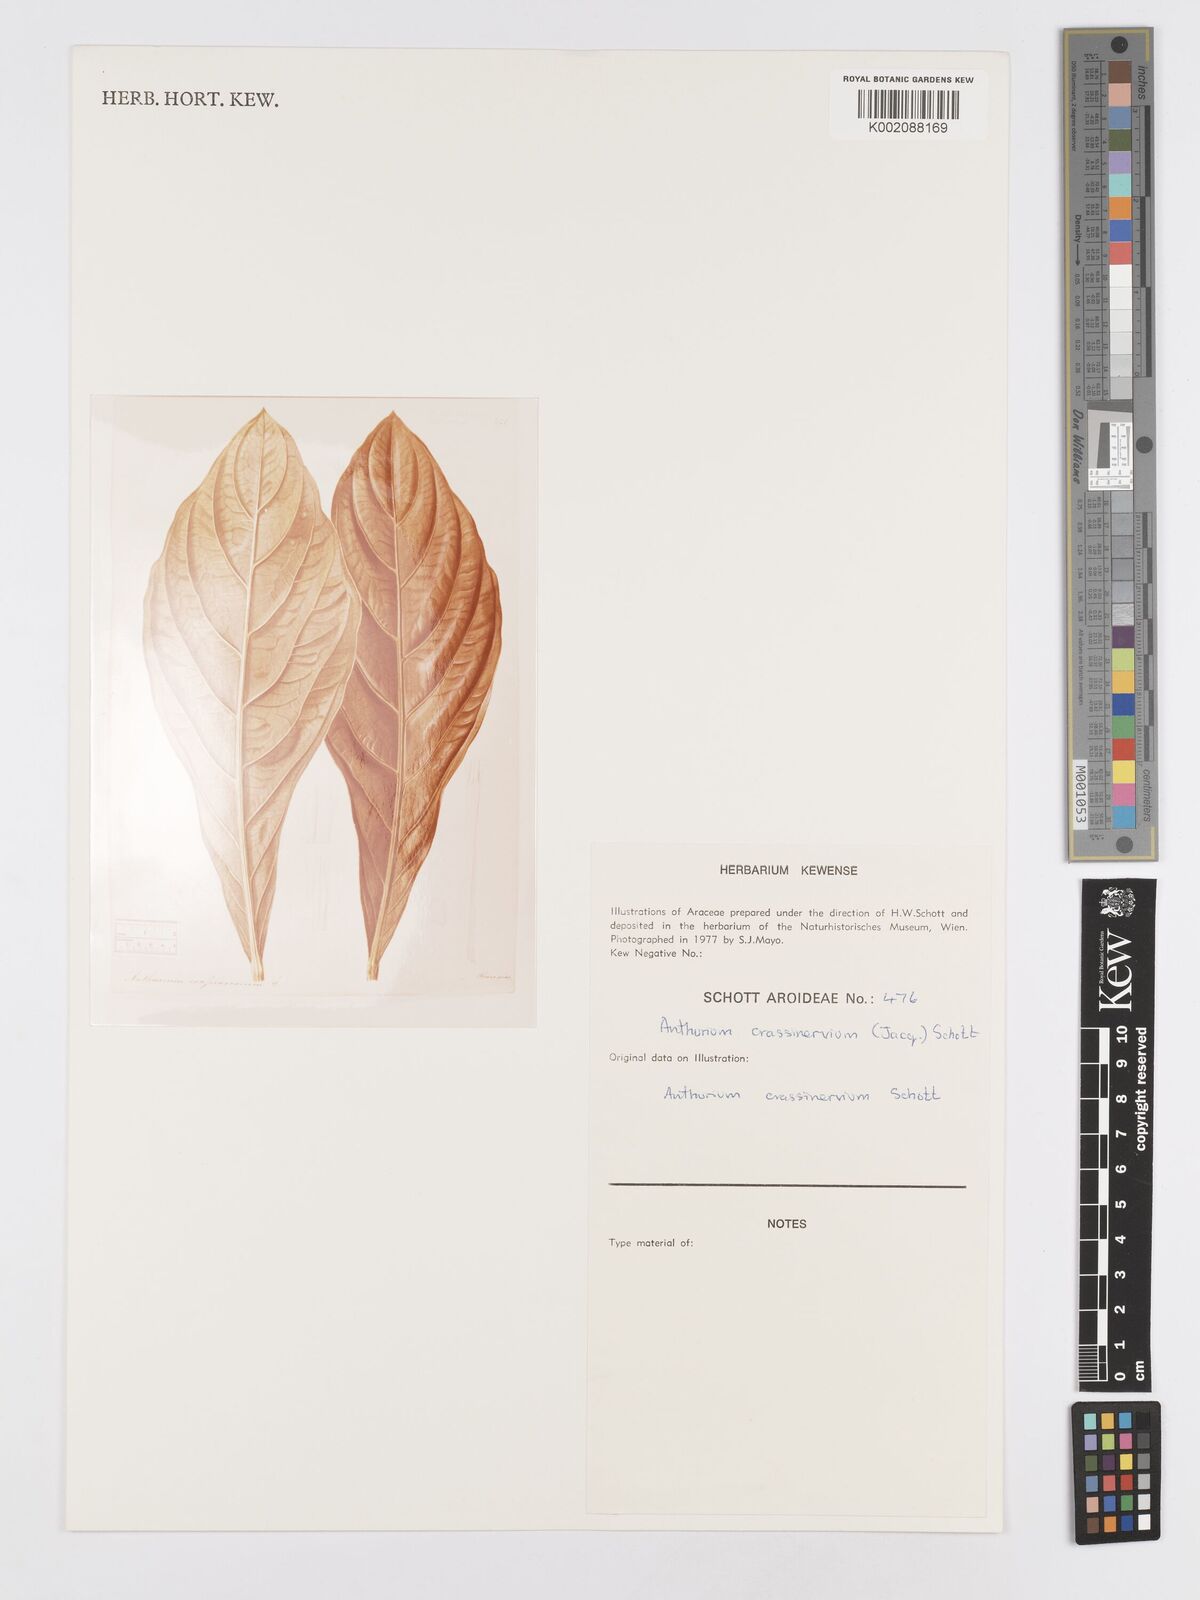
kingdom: Plantae
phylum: Tracheophyta
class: Liliopsida
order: Alismatales
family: Araceae
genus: Anthurium
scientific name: Anthurium crassinervium
